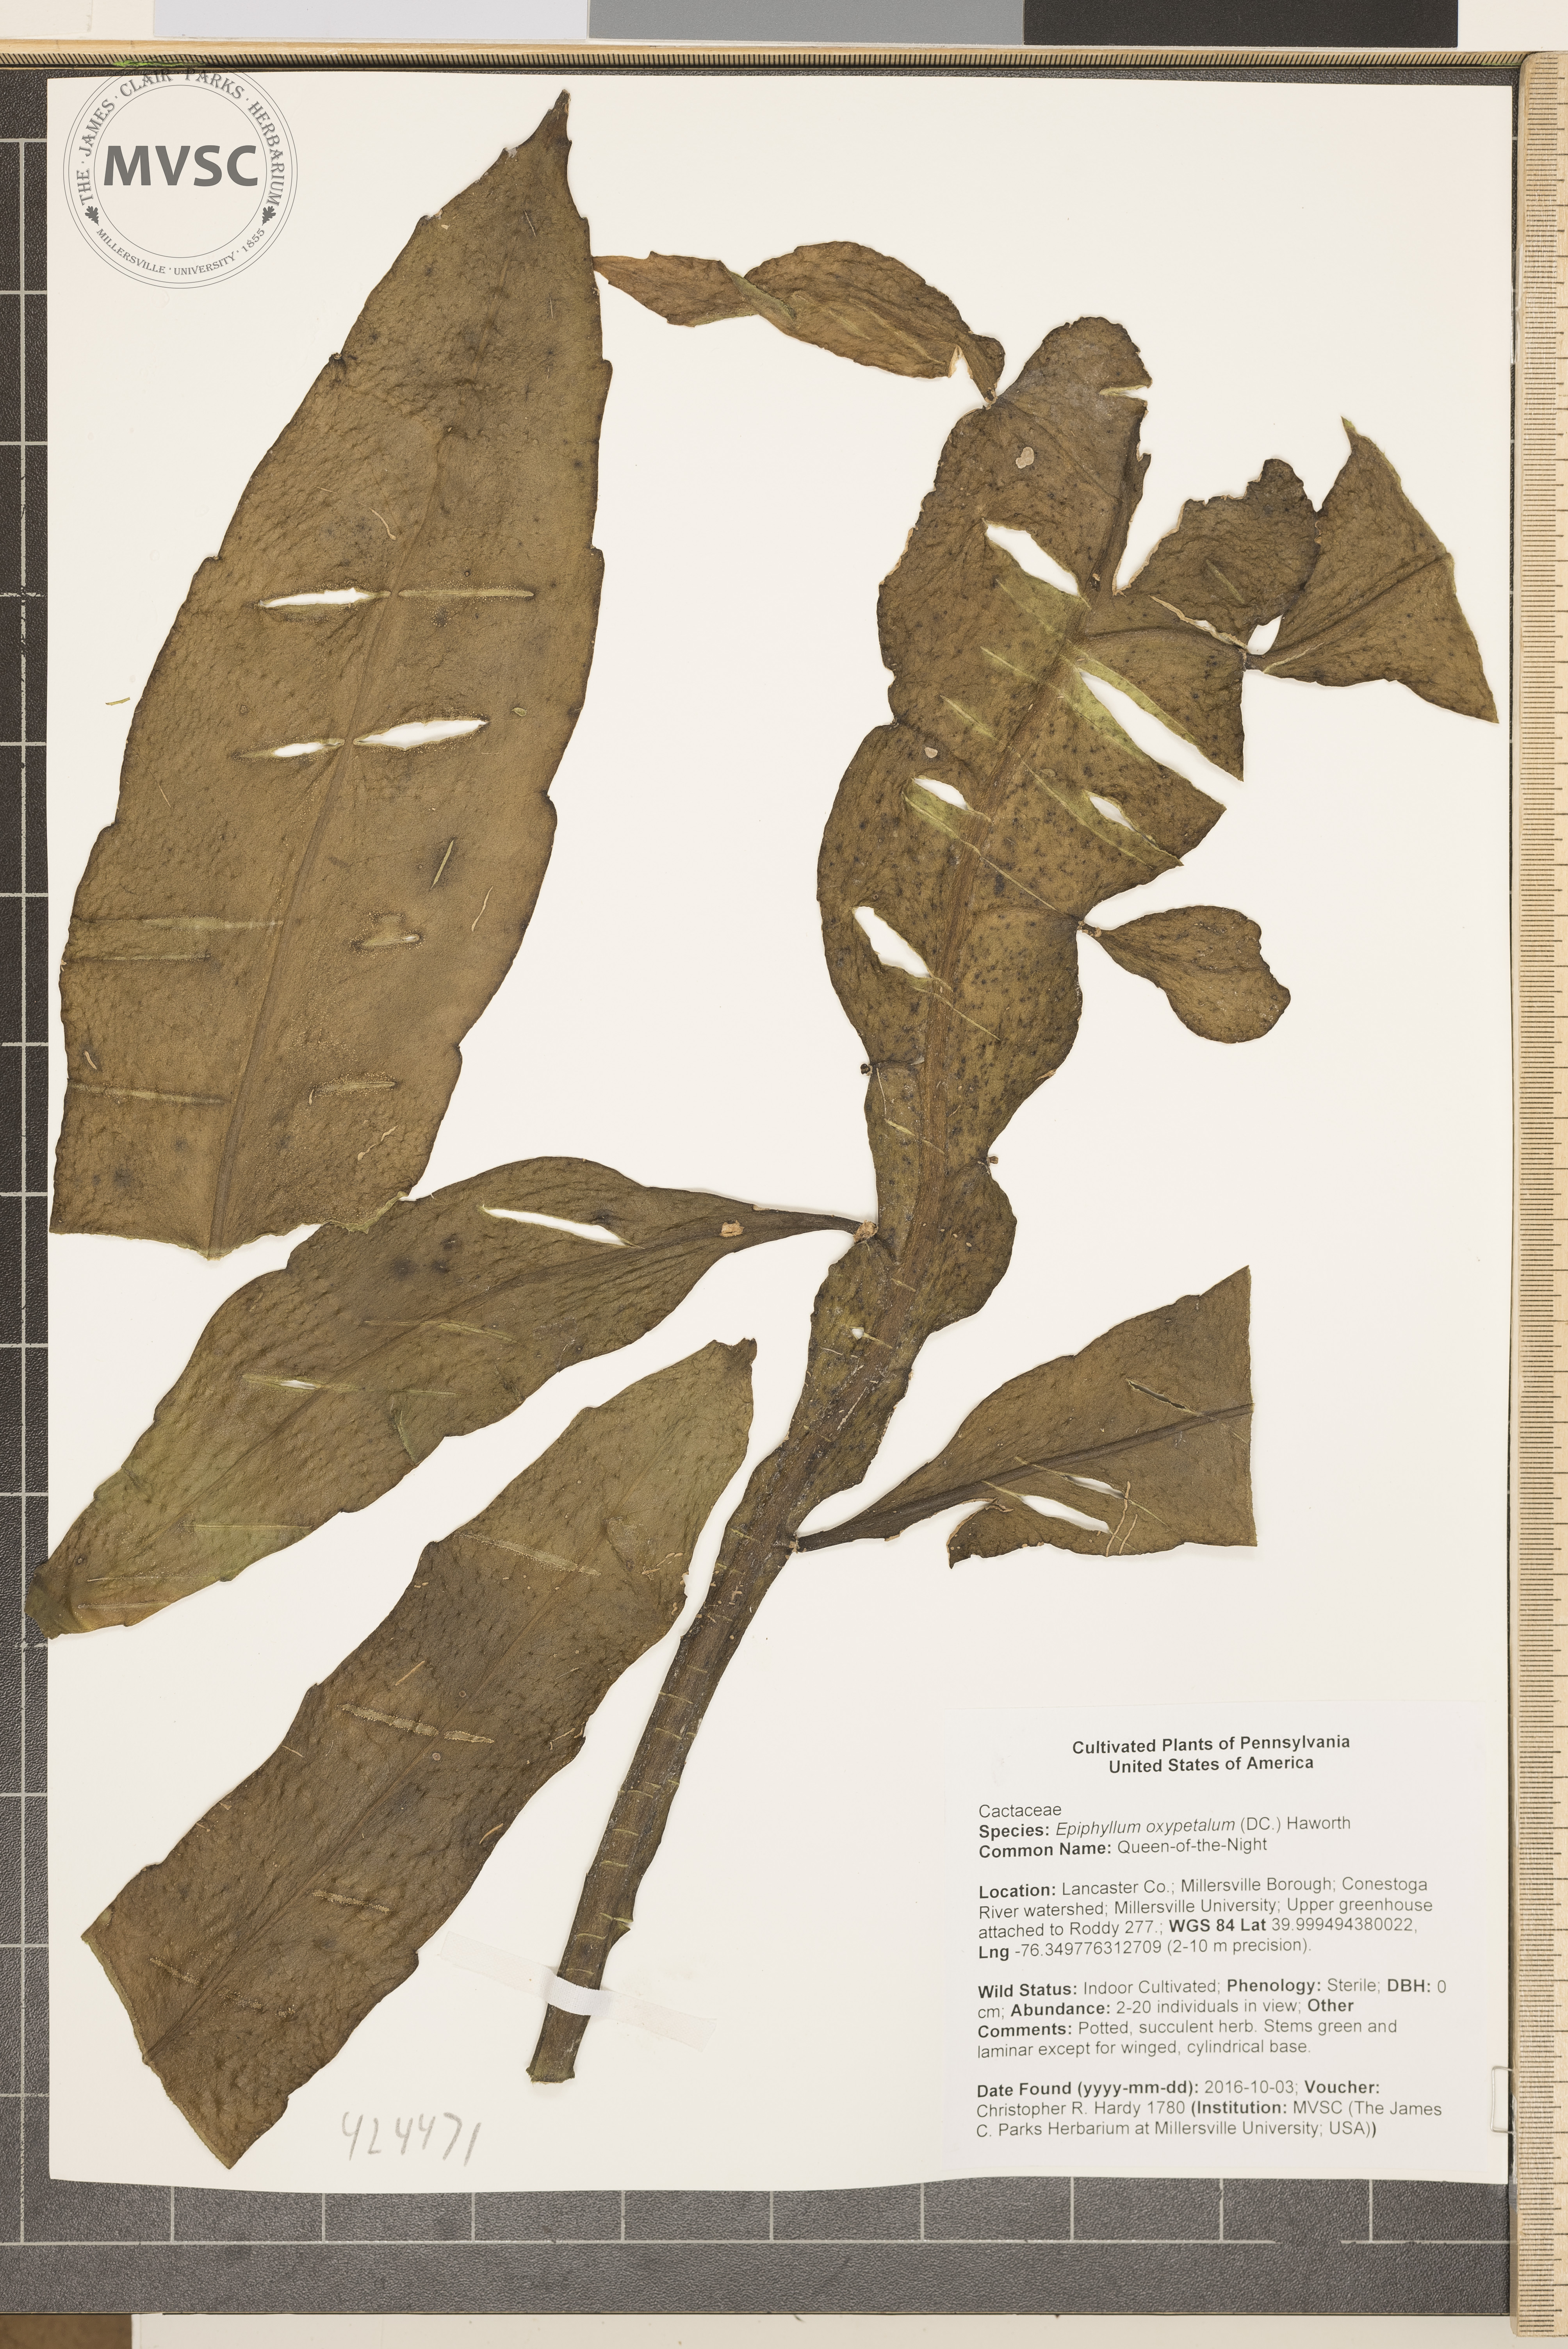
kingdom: Plantae
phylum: Tracheophyta
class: Magnoliopsida
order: Caryophyllales
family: Cactaceae
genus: Epiphyllum
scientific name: Epiphyllum oxypetalum
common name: Queen-of-the-Night
